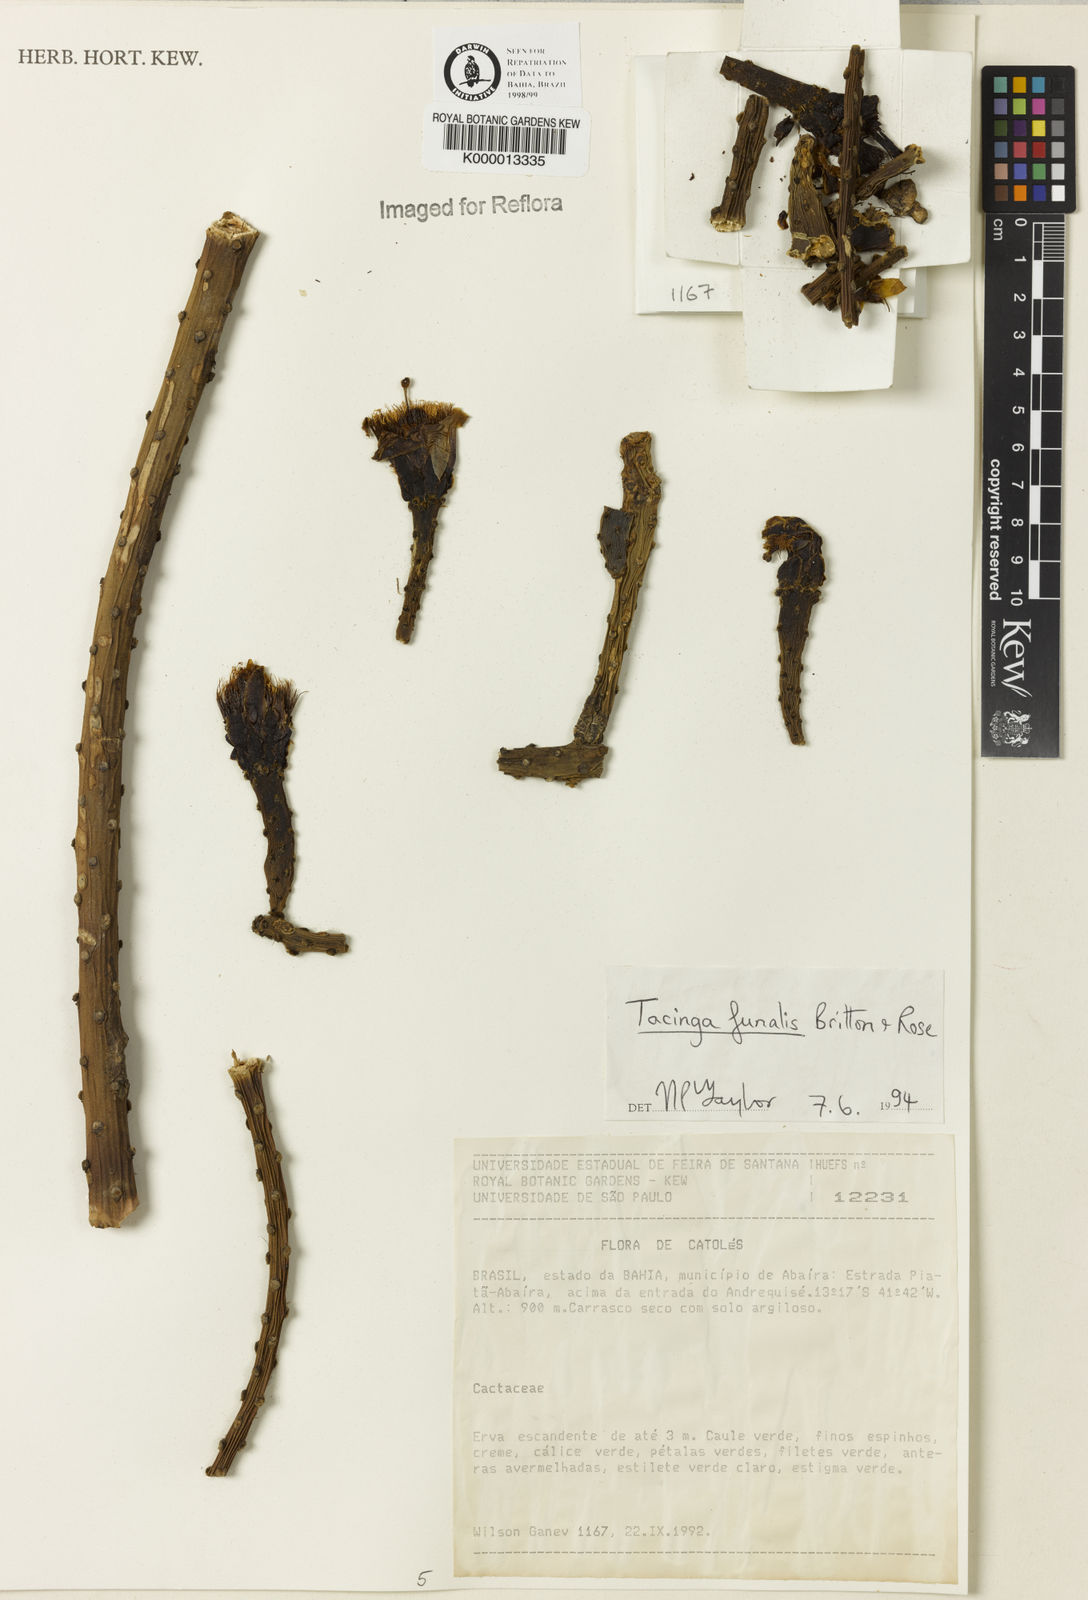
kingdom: Plantae
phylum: Tracheophyta
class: Magnoliopsida
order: Caryophyllales
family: Cactaceae
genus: Tacinga
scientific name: Tacinga funalis
